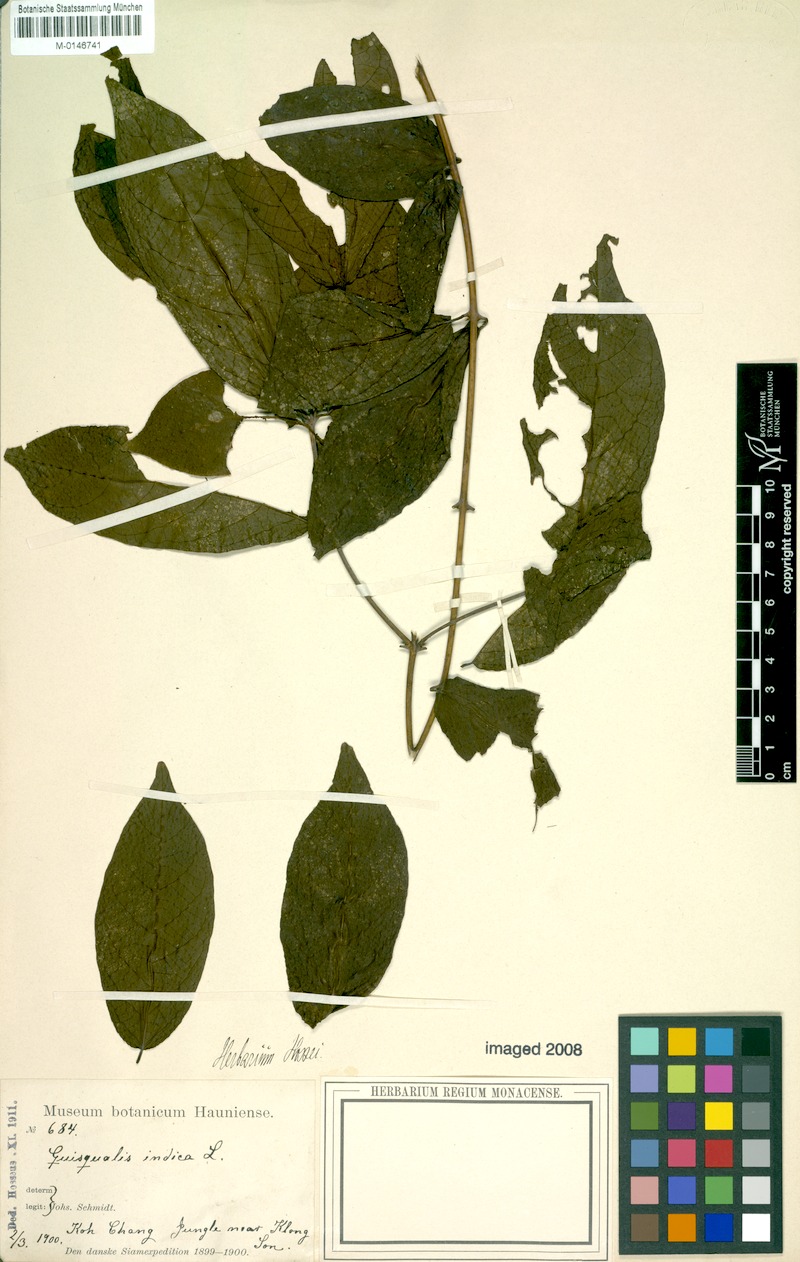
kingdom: Plantae
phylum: Tracheophyta
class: Magnoliopsida
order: Myrtales
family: Combretaceae
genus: Combretum
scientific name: Combretum indicum
